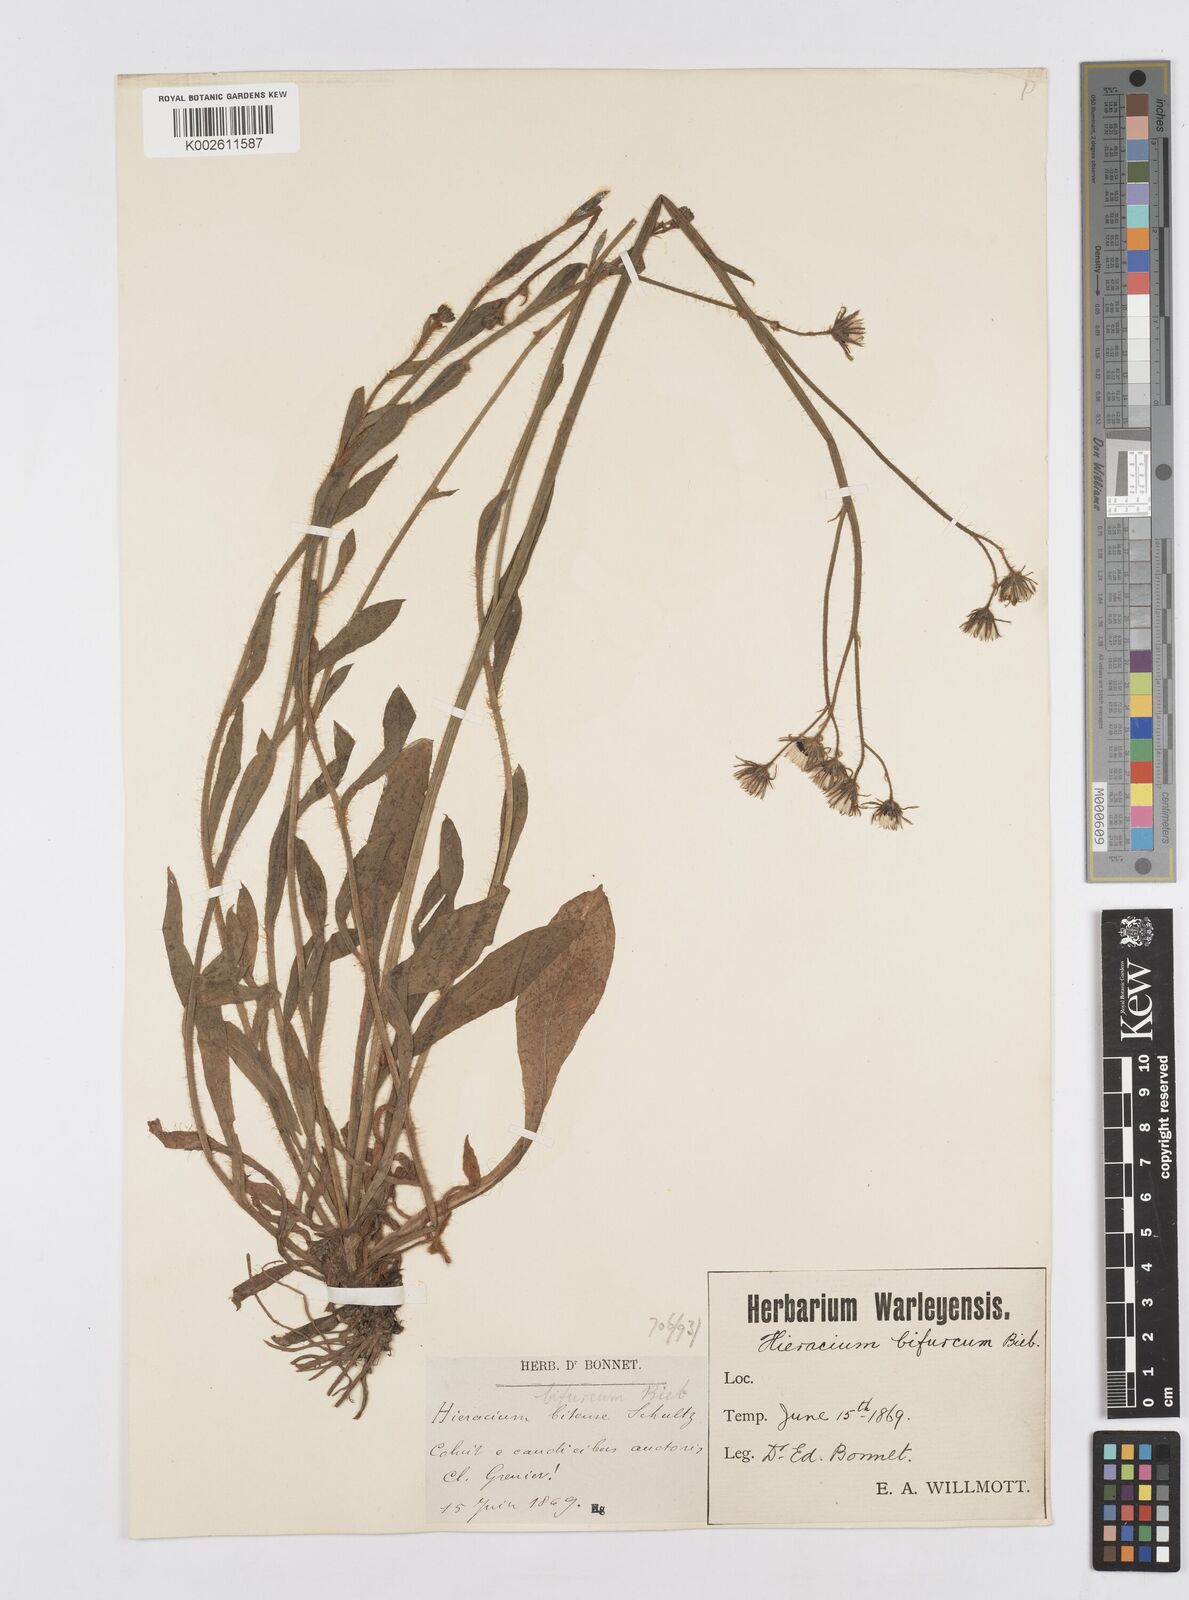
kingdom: Plantae
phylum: Tracheophyta
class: Magnoliopsida
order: Asterales
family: Asteraceae
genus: Pilosella
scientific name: Pilosella acutifolia
